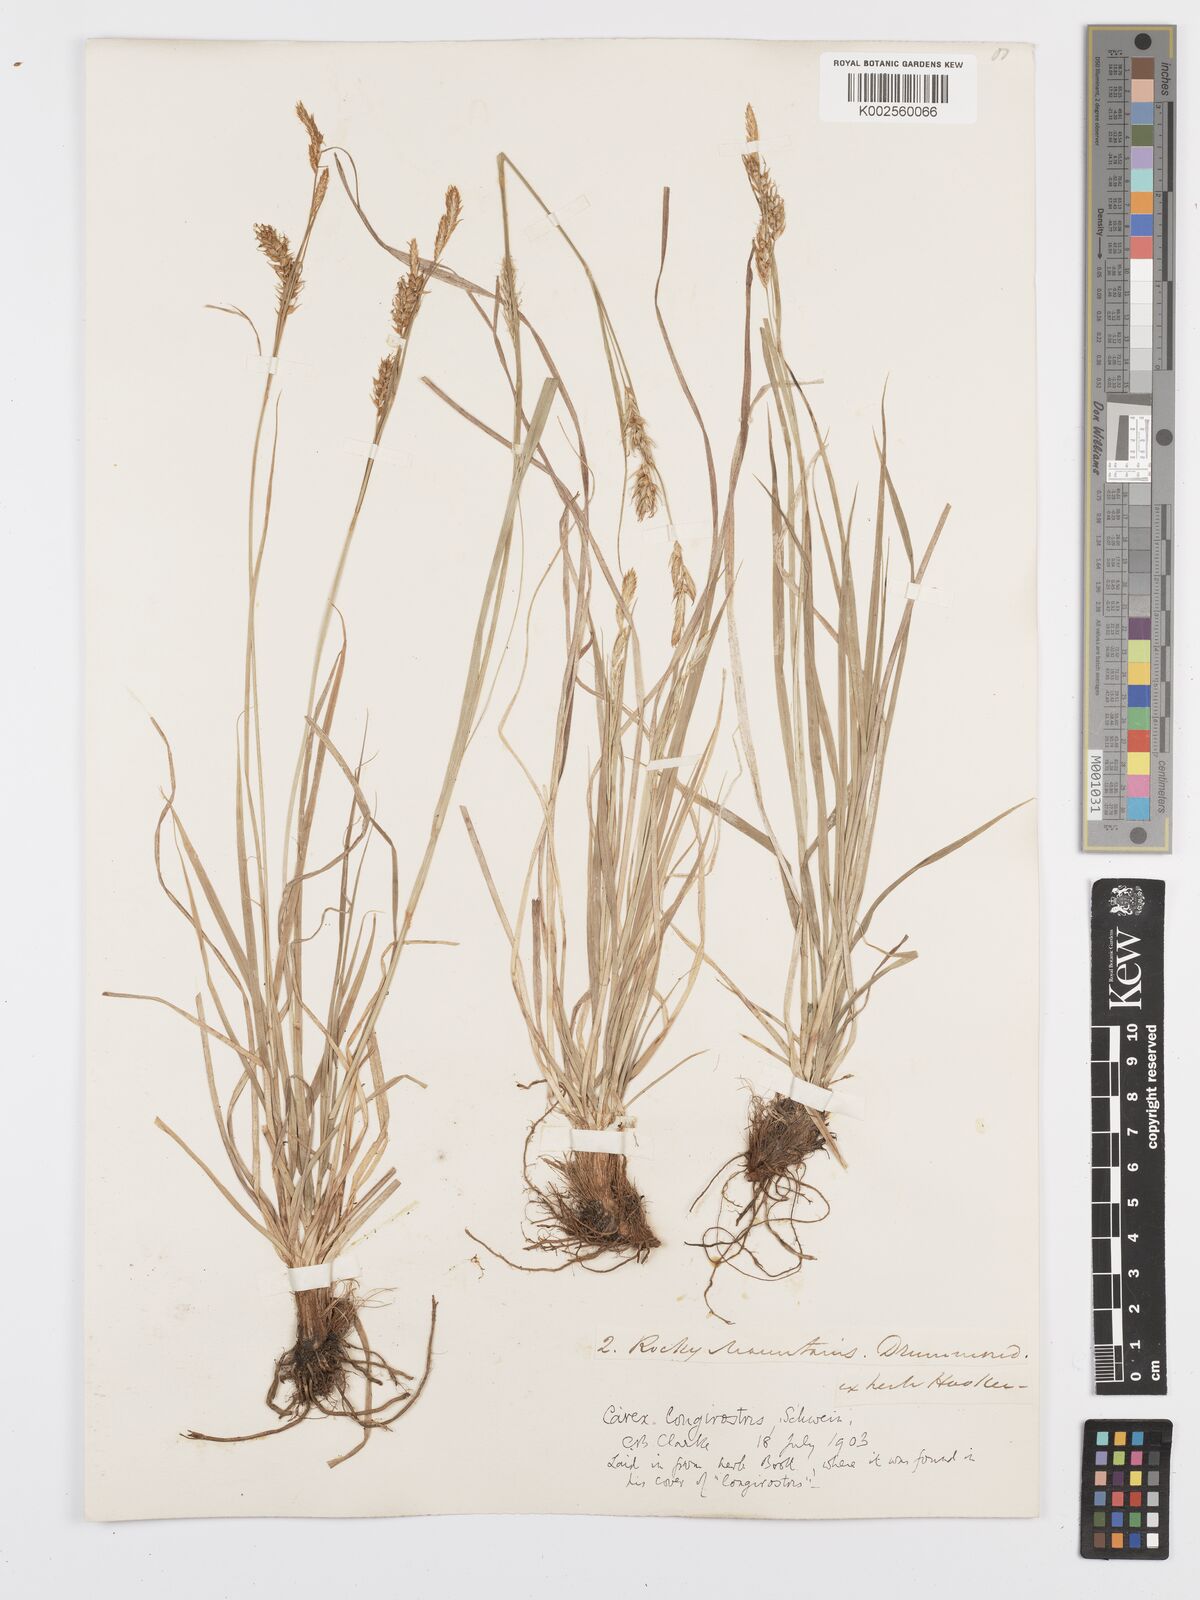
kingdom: Plantae
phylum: Tracheophyta
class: Liliopsida
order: Poales
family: Cyperaceae
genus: Carex
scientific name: Carex sprengelii
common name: Long-beaked sedge
